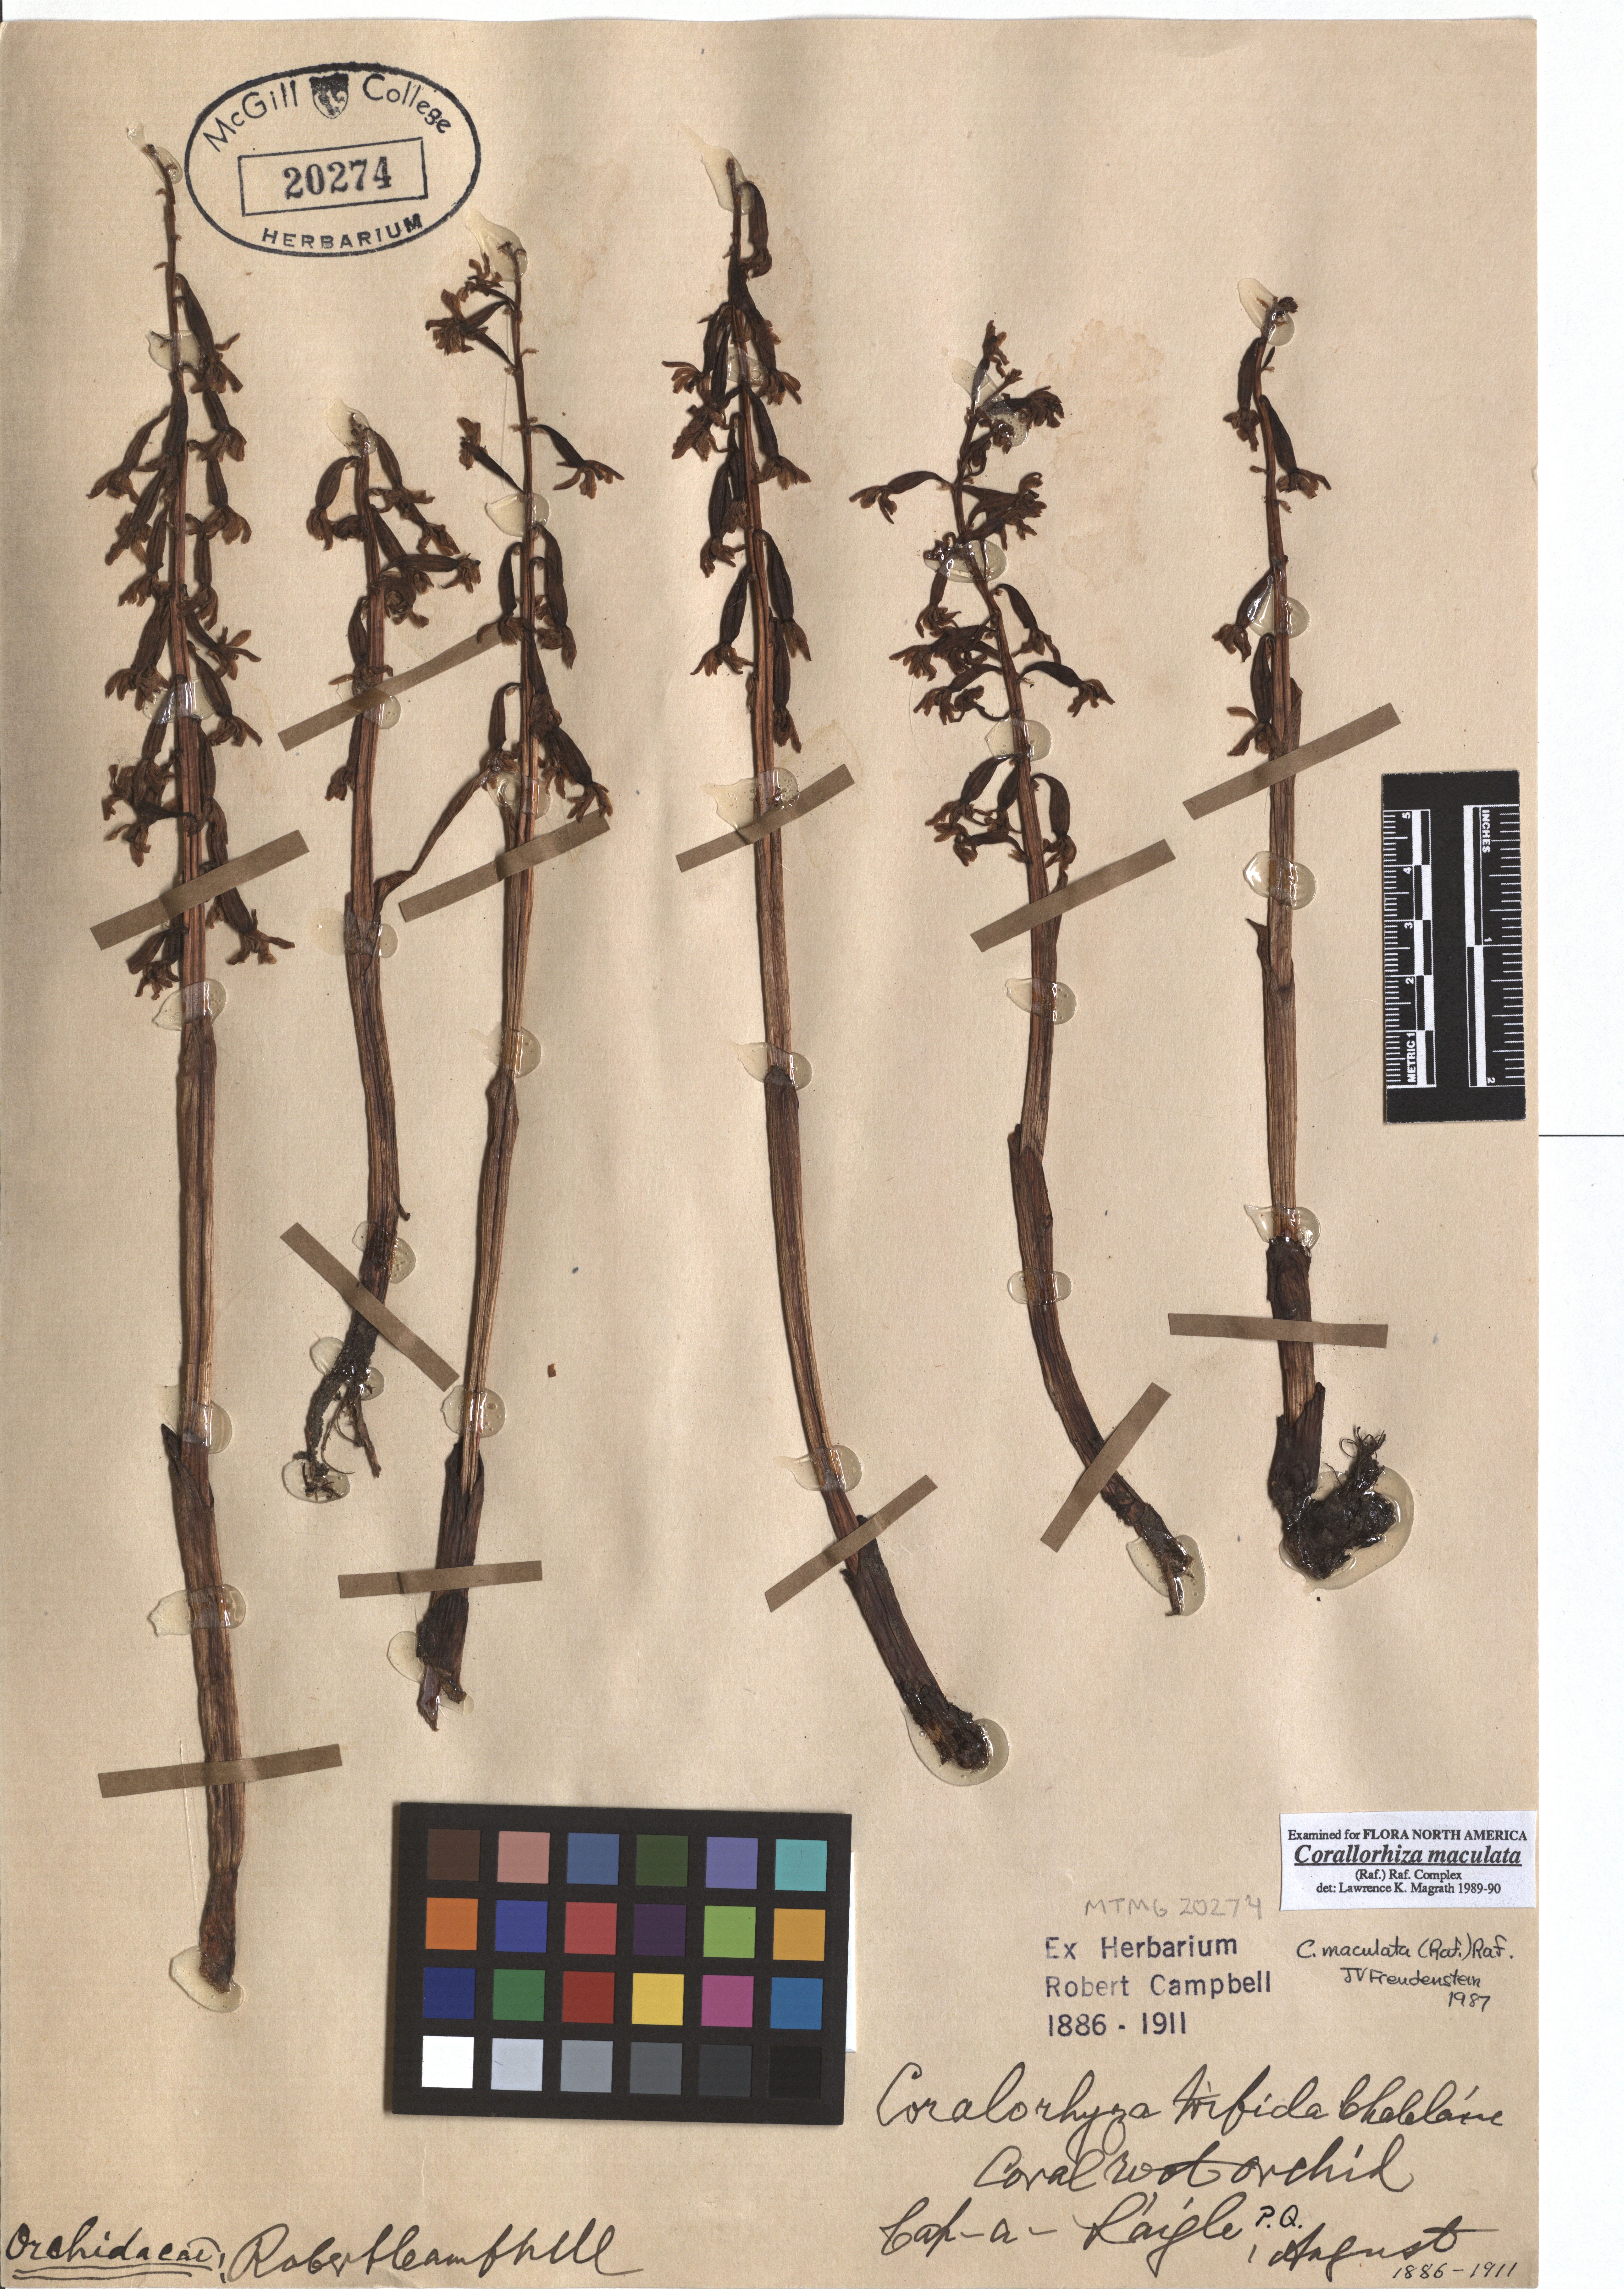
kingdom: Plantae
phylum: Tracheophyta
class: Liliopsida
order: Asparagales
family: Orchidaceae
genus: Corallorhiza
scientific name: Corallorhiza maculata
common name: Spotted coralroot
